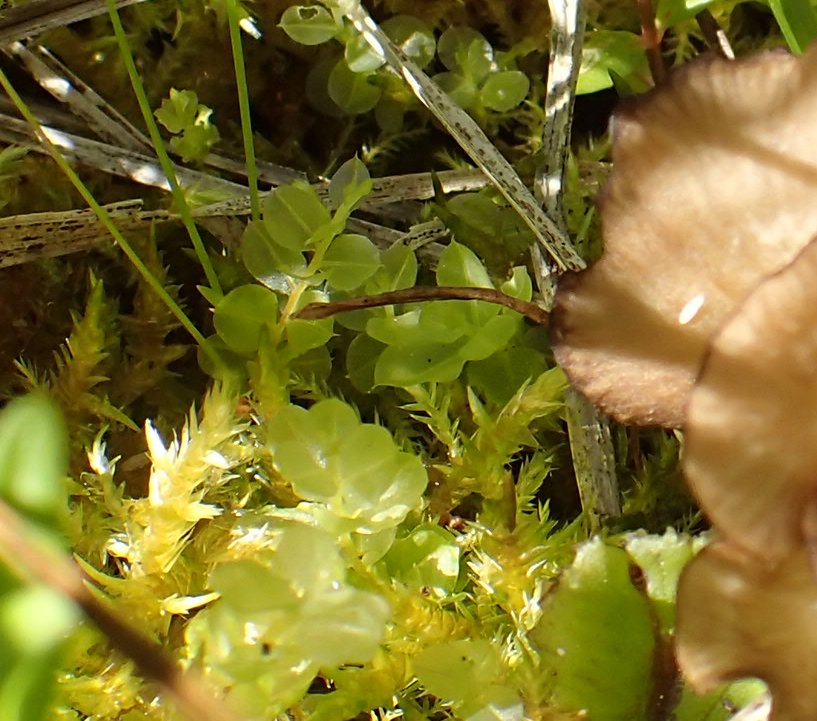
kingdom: Fungi
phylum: Basidiomycota
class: Agaricomycetes
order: Agaricales
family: Hygrophoraceae
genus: Arrhenia
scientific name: Arrhenia lobata
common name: siddende fontænehat
